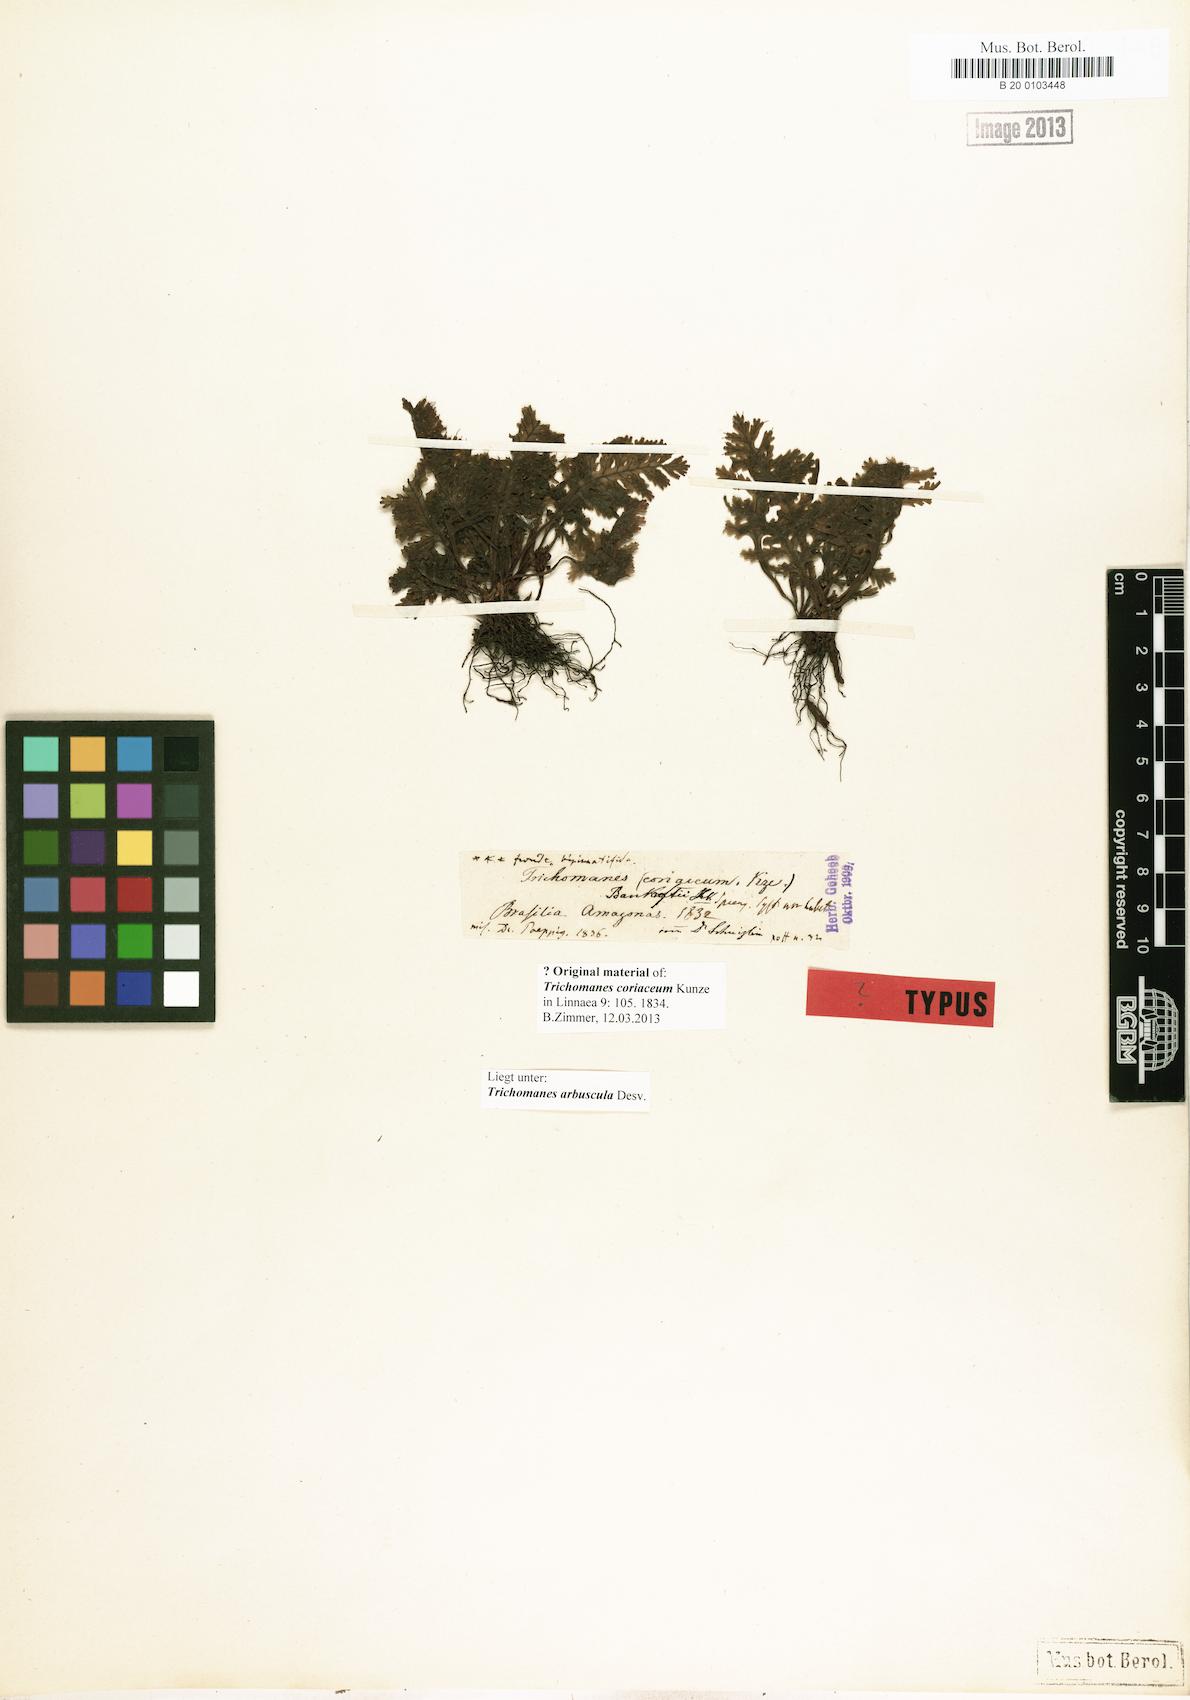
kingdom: Plantae
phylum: Tracheophyta
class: Polypodiopsida
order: Hymenophyllales
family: Hymenophyllaceae
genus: Trichomanes
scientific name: Trichomanes arbuscula
